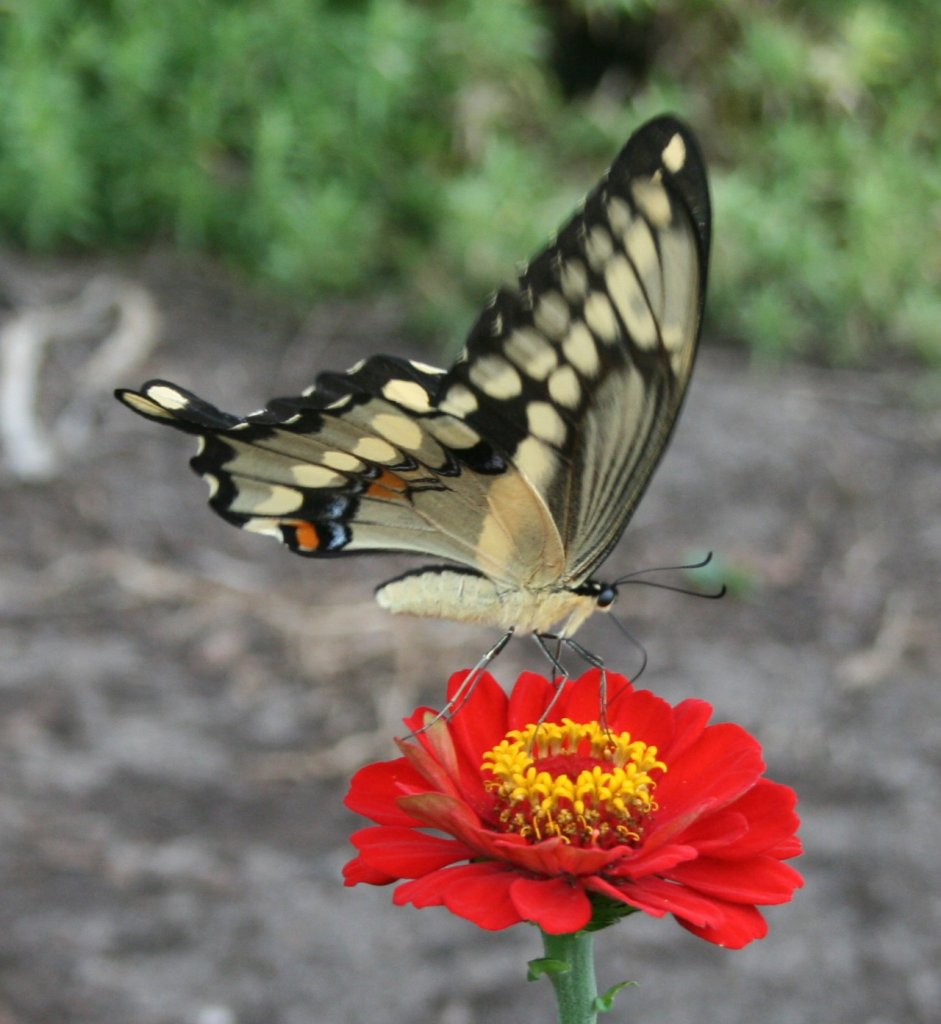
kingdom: Animalia
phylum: Arthropoda
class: Insecta
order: Lepidoptera
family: Papilionidae
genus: Papilio
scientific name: Papilio cresphontes
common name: Eastern Giant Swallowtail
